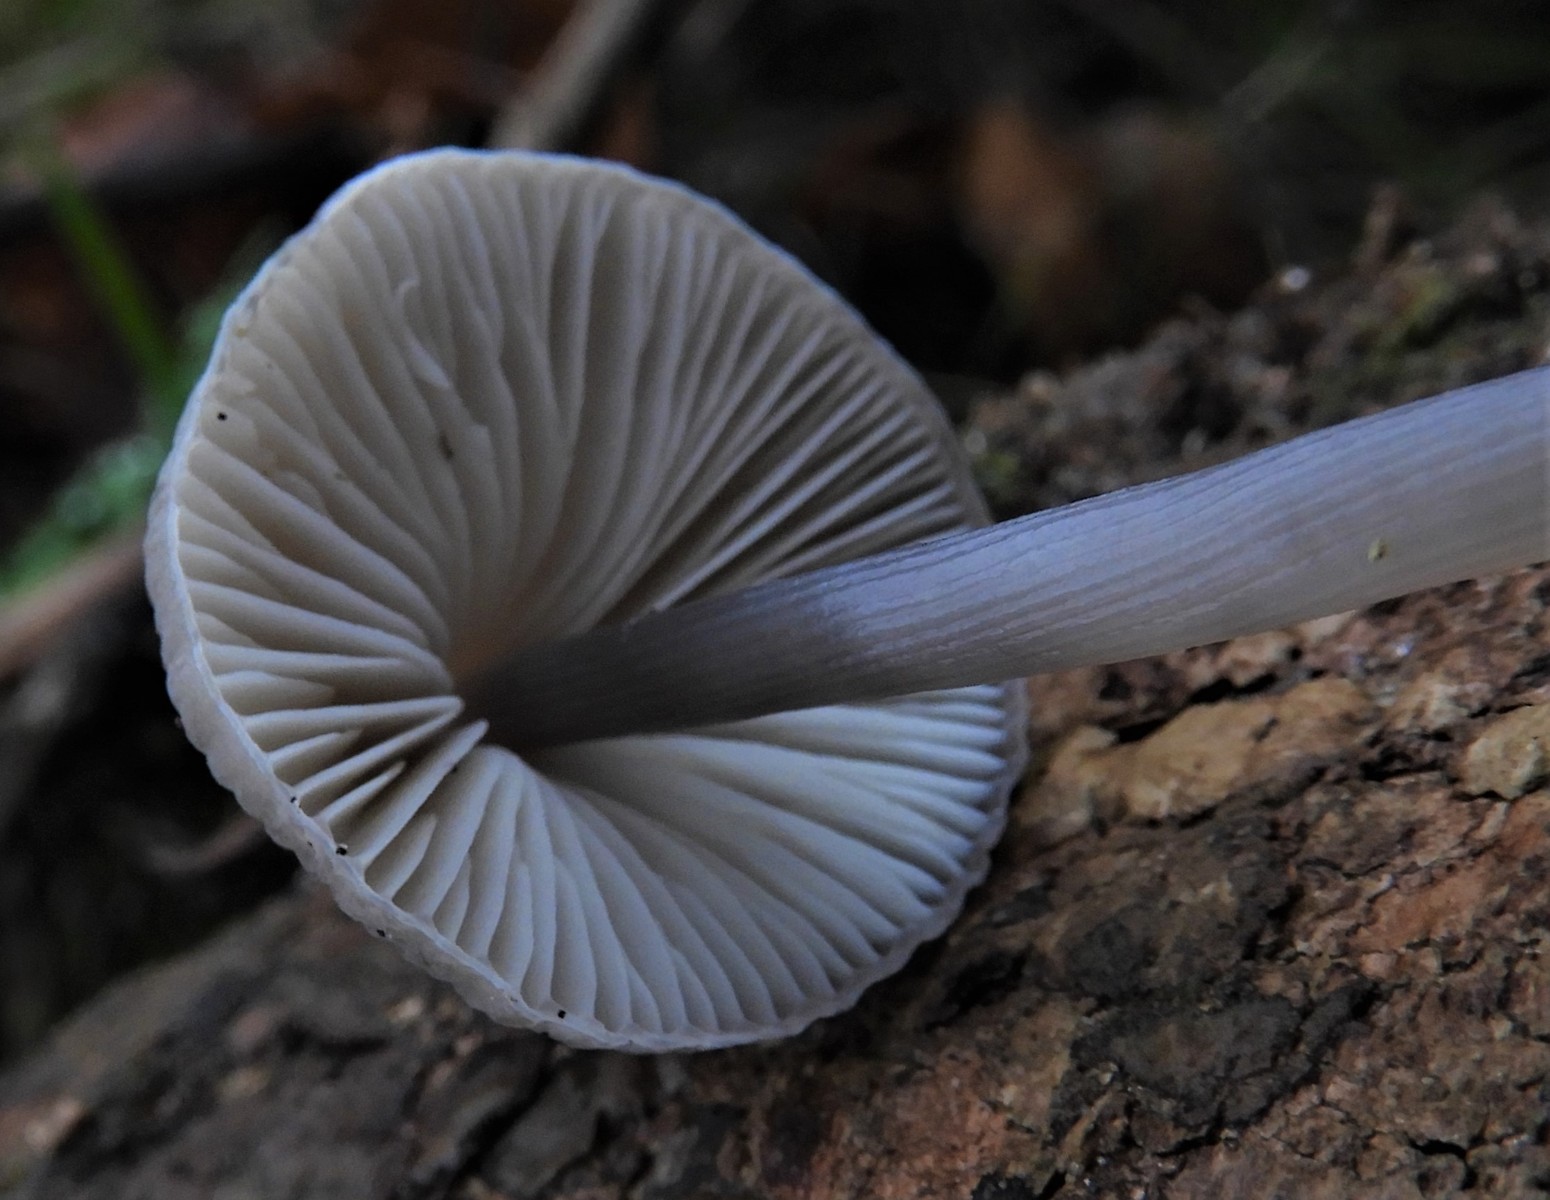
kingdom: Fungi
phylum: Basidiomycota
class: Agaricomycetes
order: Agaricales
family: Mycenaceae
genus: Mycena
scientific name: Mycena polygramma
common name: mangestribet huesvamp
